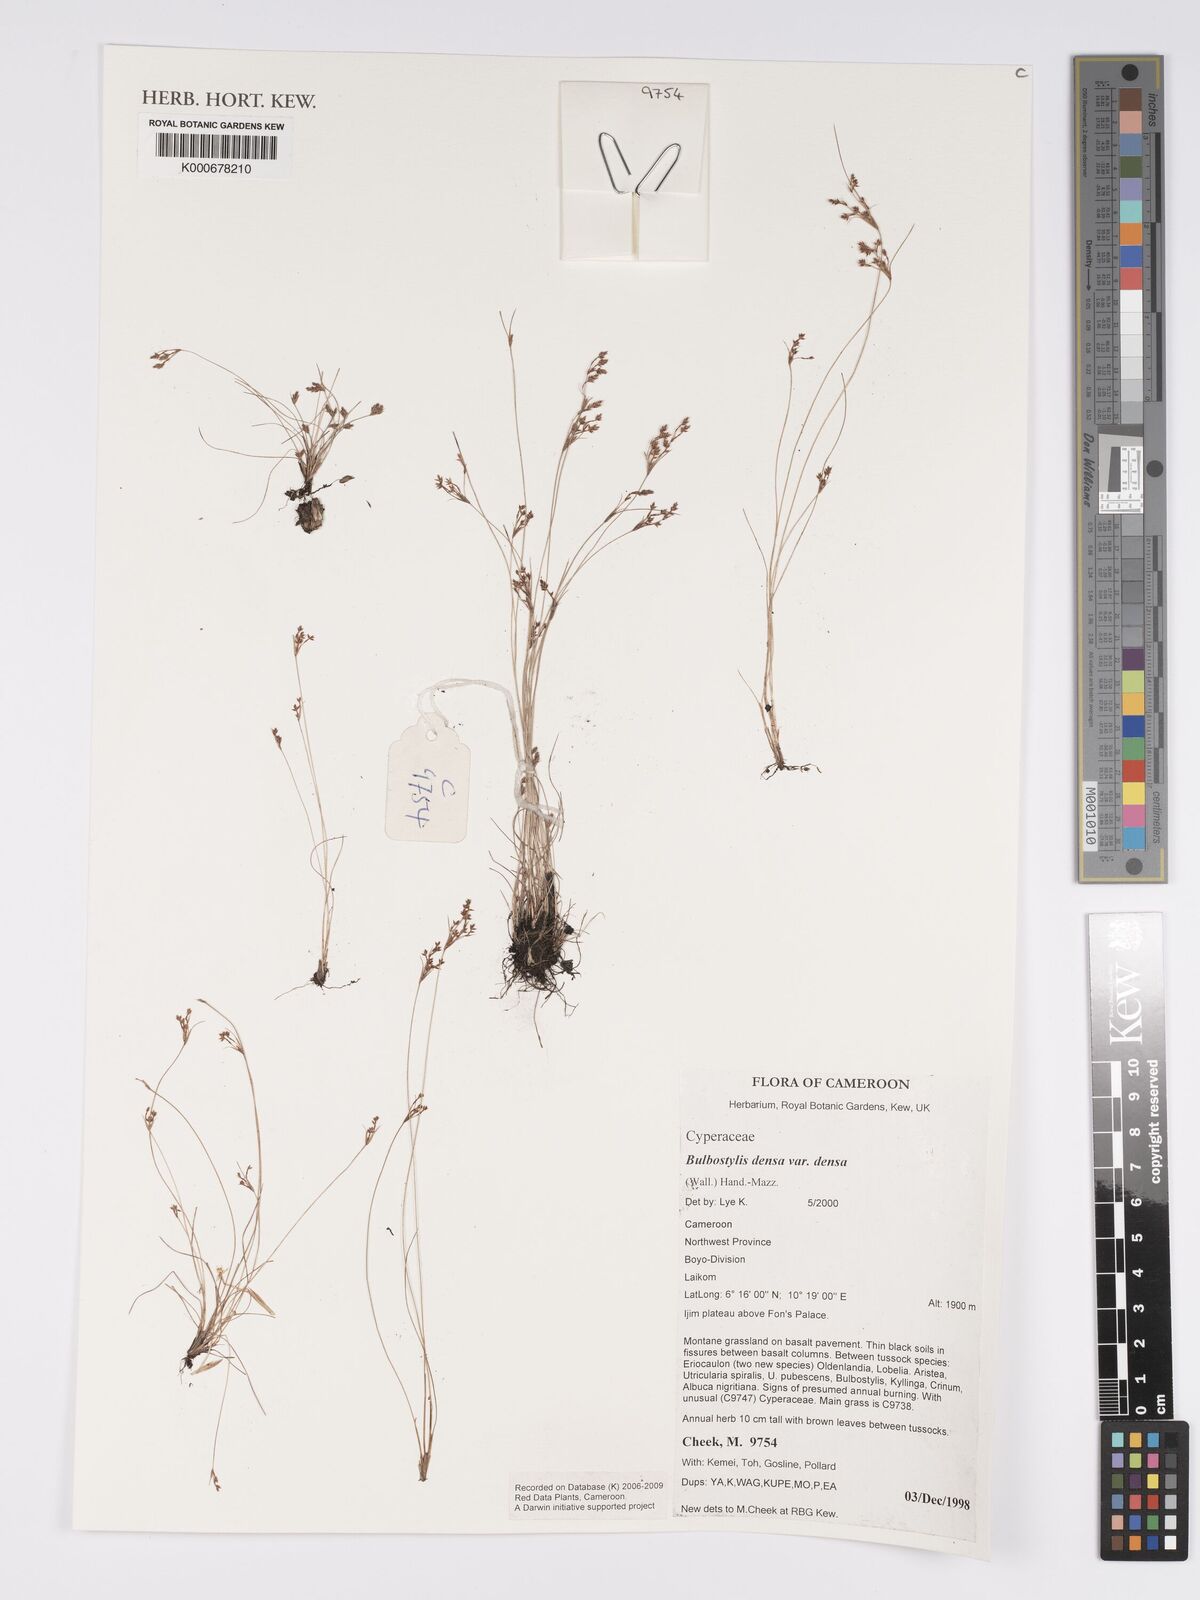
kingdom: Plantae
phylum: Tracheophyta
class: Liliopsida
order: Poales
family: Cyperaceae
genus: Bulbostylis
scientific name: Bulbostylis densa
